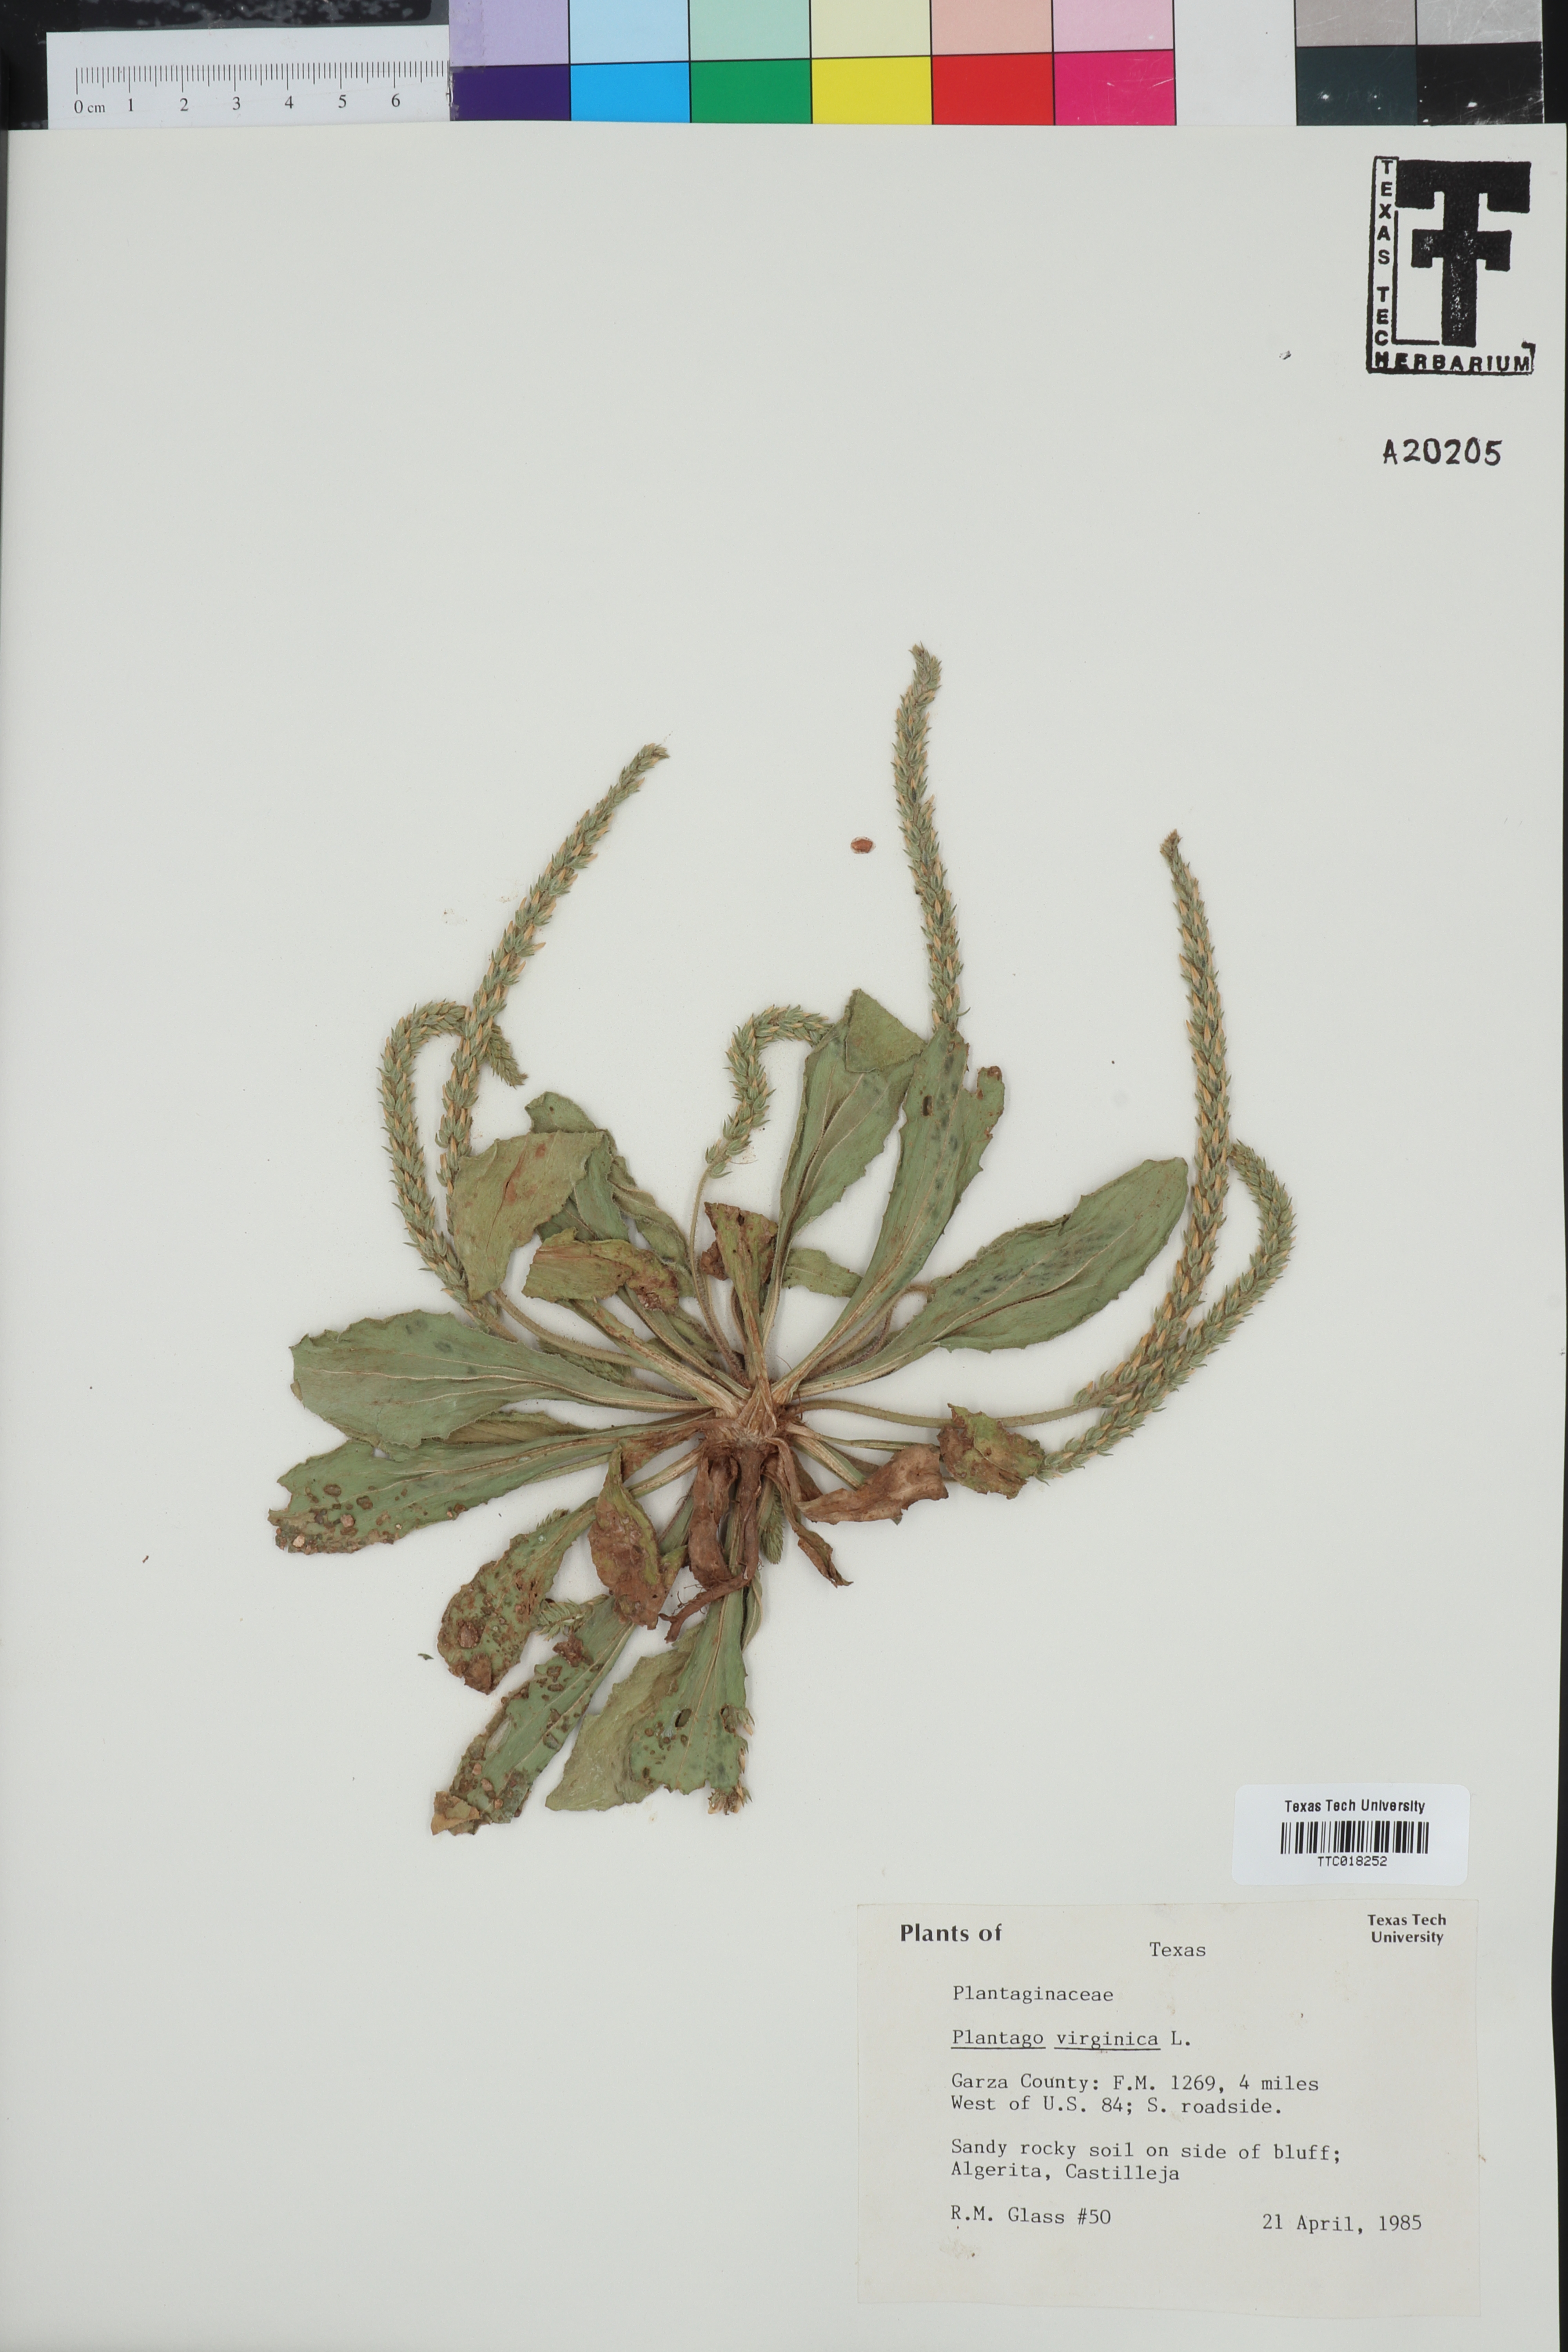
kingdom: Plantae
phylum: Tracheophyta
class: Magnoliopsida
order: Lamiales
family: Plantaginaceae
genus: Plantago
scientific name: Plantago virginica
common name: Hoary plantain
